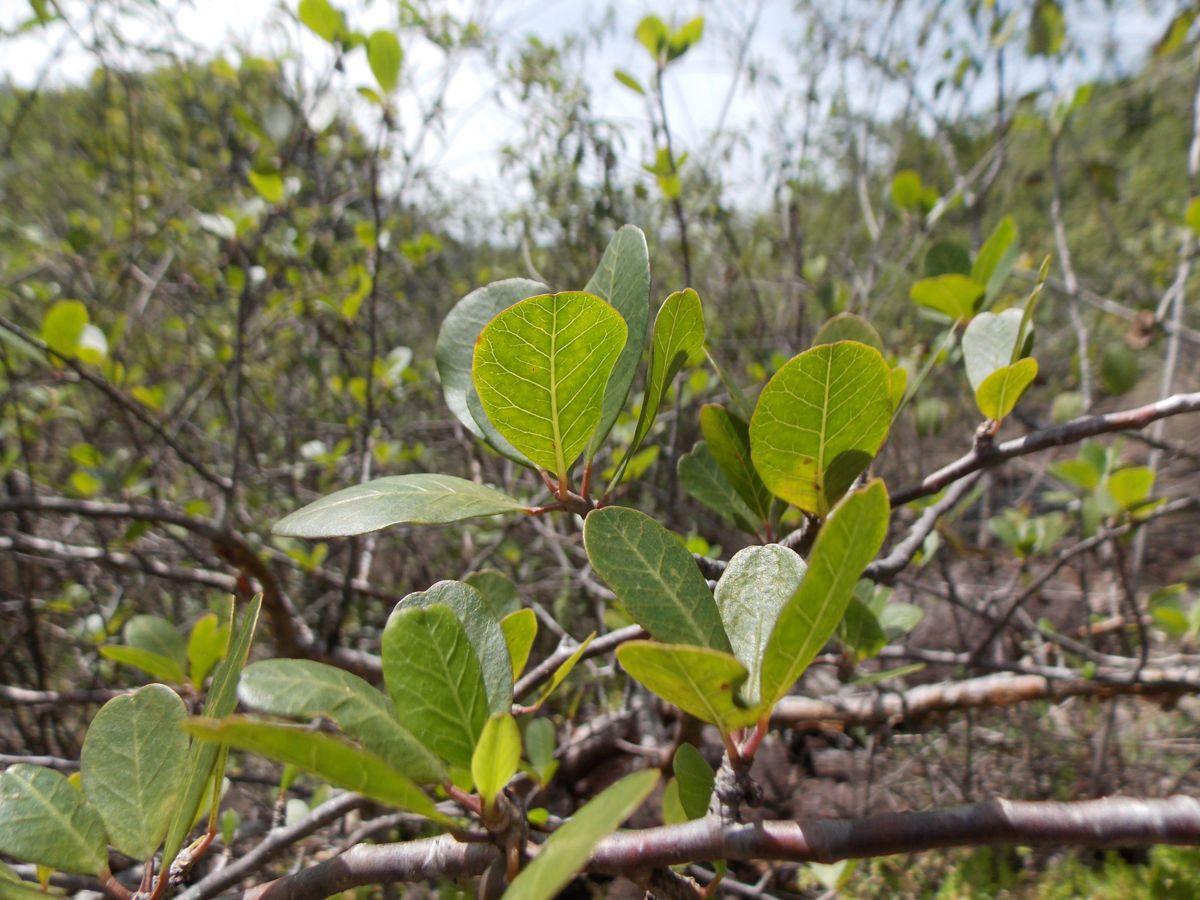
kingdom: Plantae
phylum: Tracheophyta
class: Magnoliopsida
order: Sapindales
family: Burseraceae
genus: Bursera
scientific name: Bursera schlechtendalii
